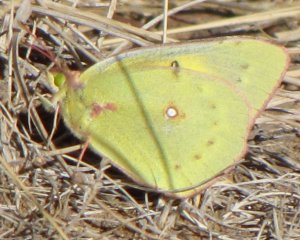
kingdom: Animalia
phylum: Arthropoda
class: Insecta
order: Lepidoptera
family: Pieridae
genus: Colias
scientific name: Colias eurytheme
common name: Orange Sulphur
